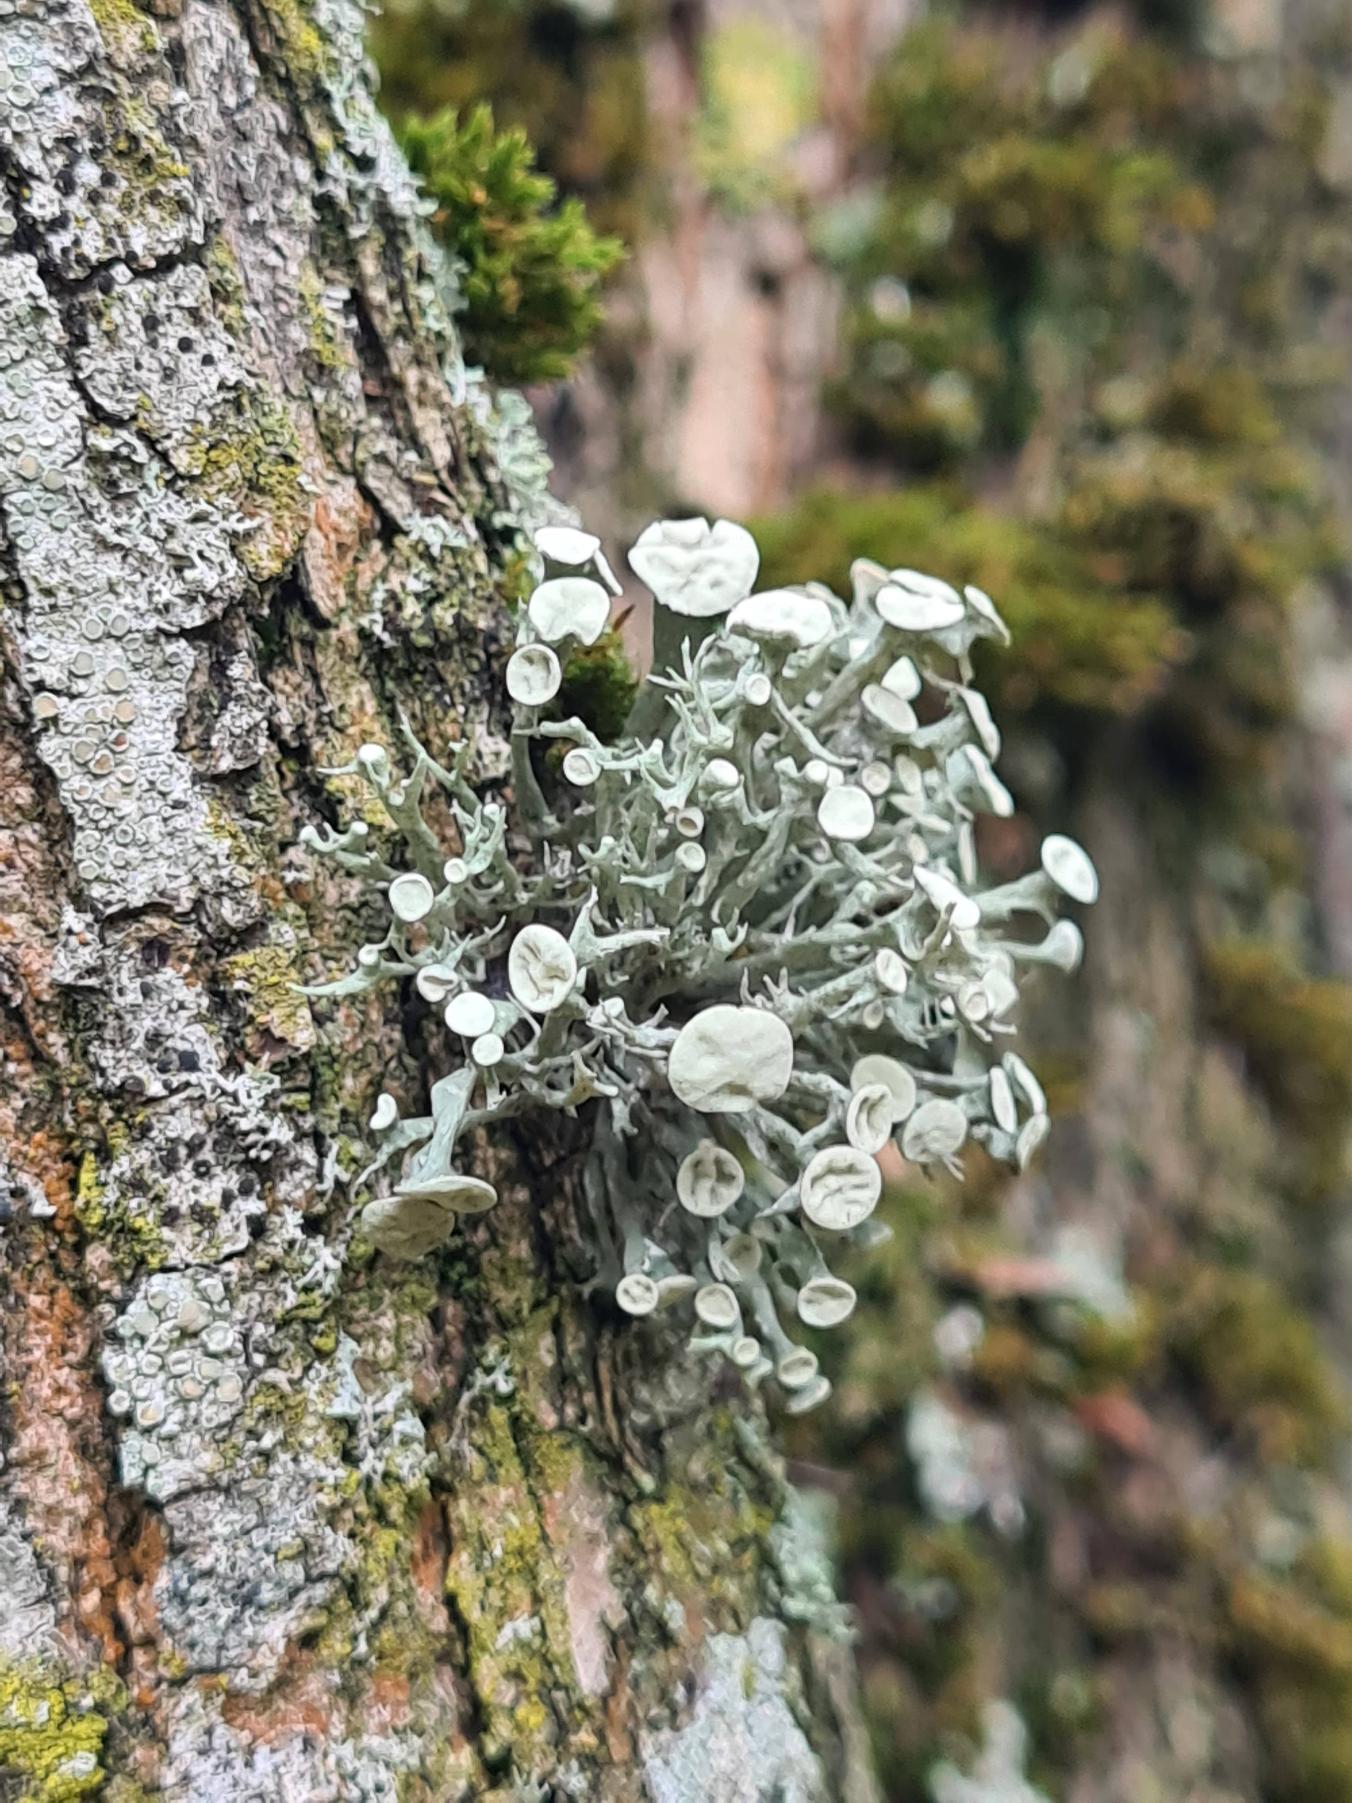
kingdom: Fungi
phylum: Ascomycota
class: Lecanoromycetes
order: Lecanorales
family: Ramalinaceae
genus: Ramalina
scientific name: Ramalina fastigiata
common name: Tue-grenlav
